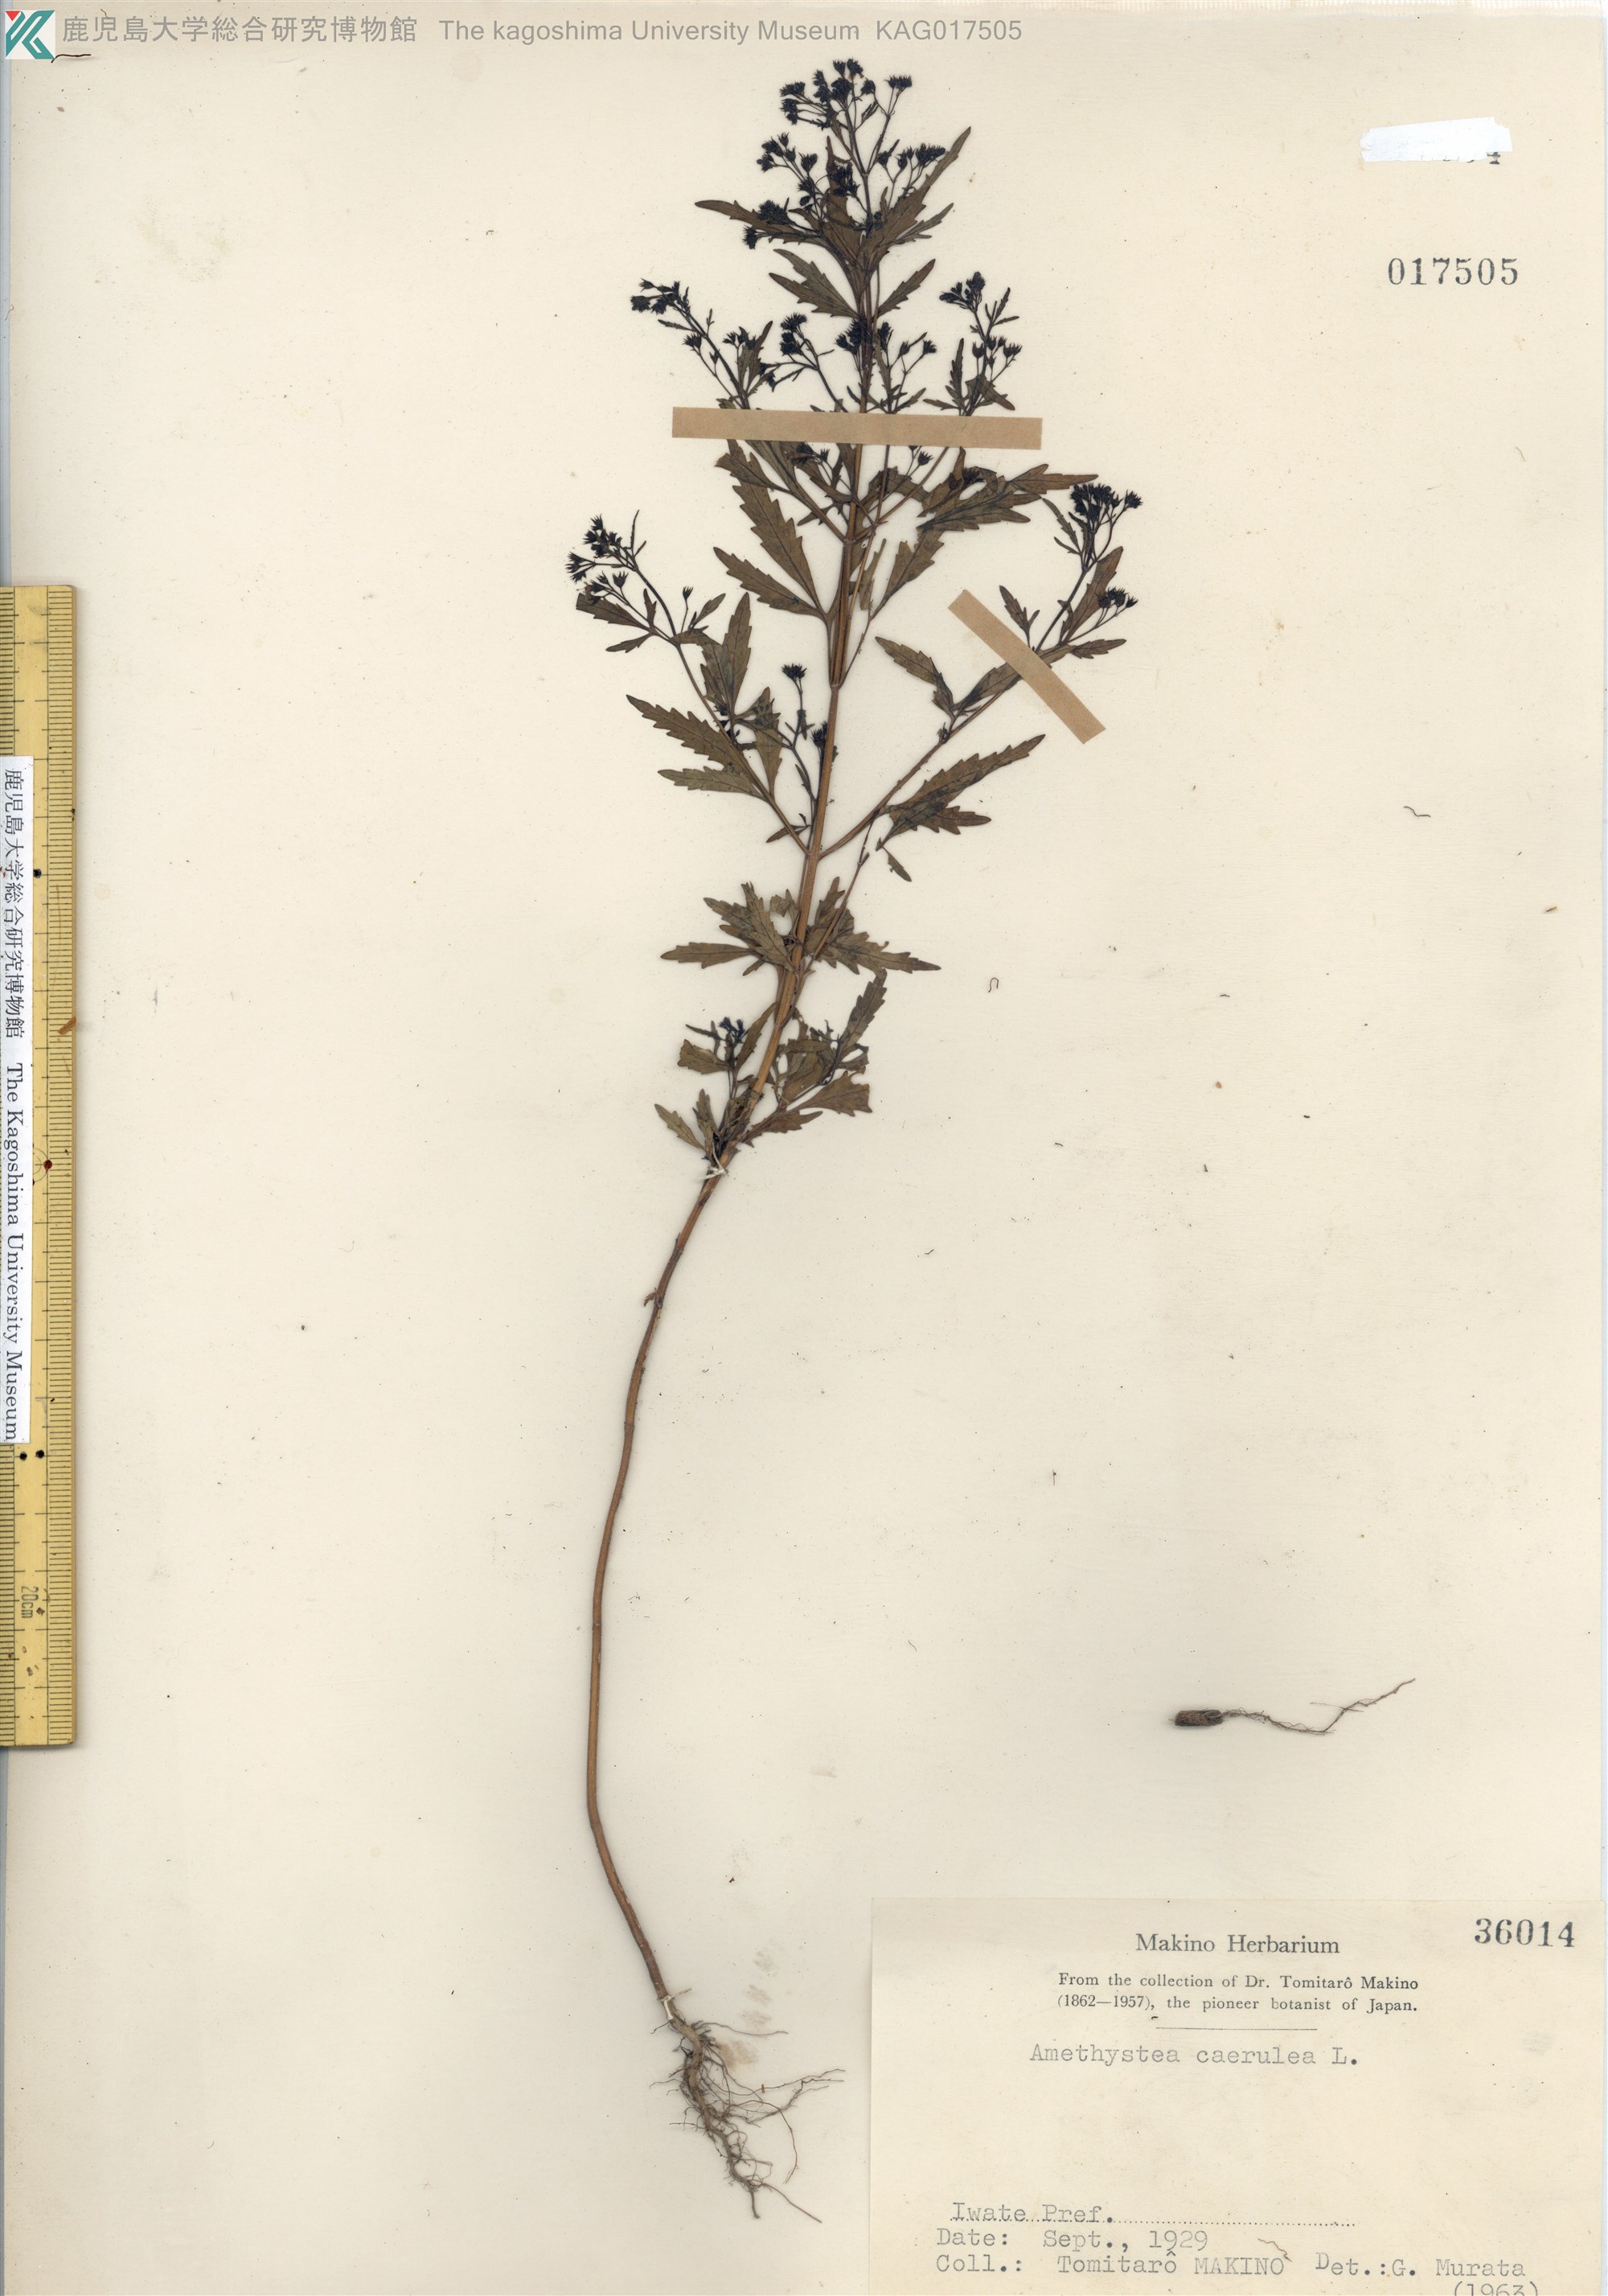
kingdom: Plantae
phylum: Tracheophyta
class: Magnoliopsida
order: Lamiales
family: Lamiaceae
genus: Amethystea
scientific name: Amethystea caerulea
